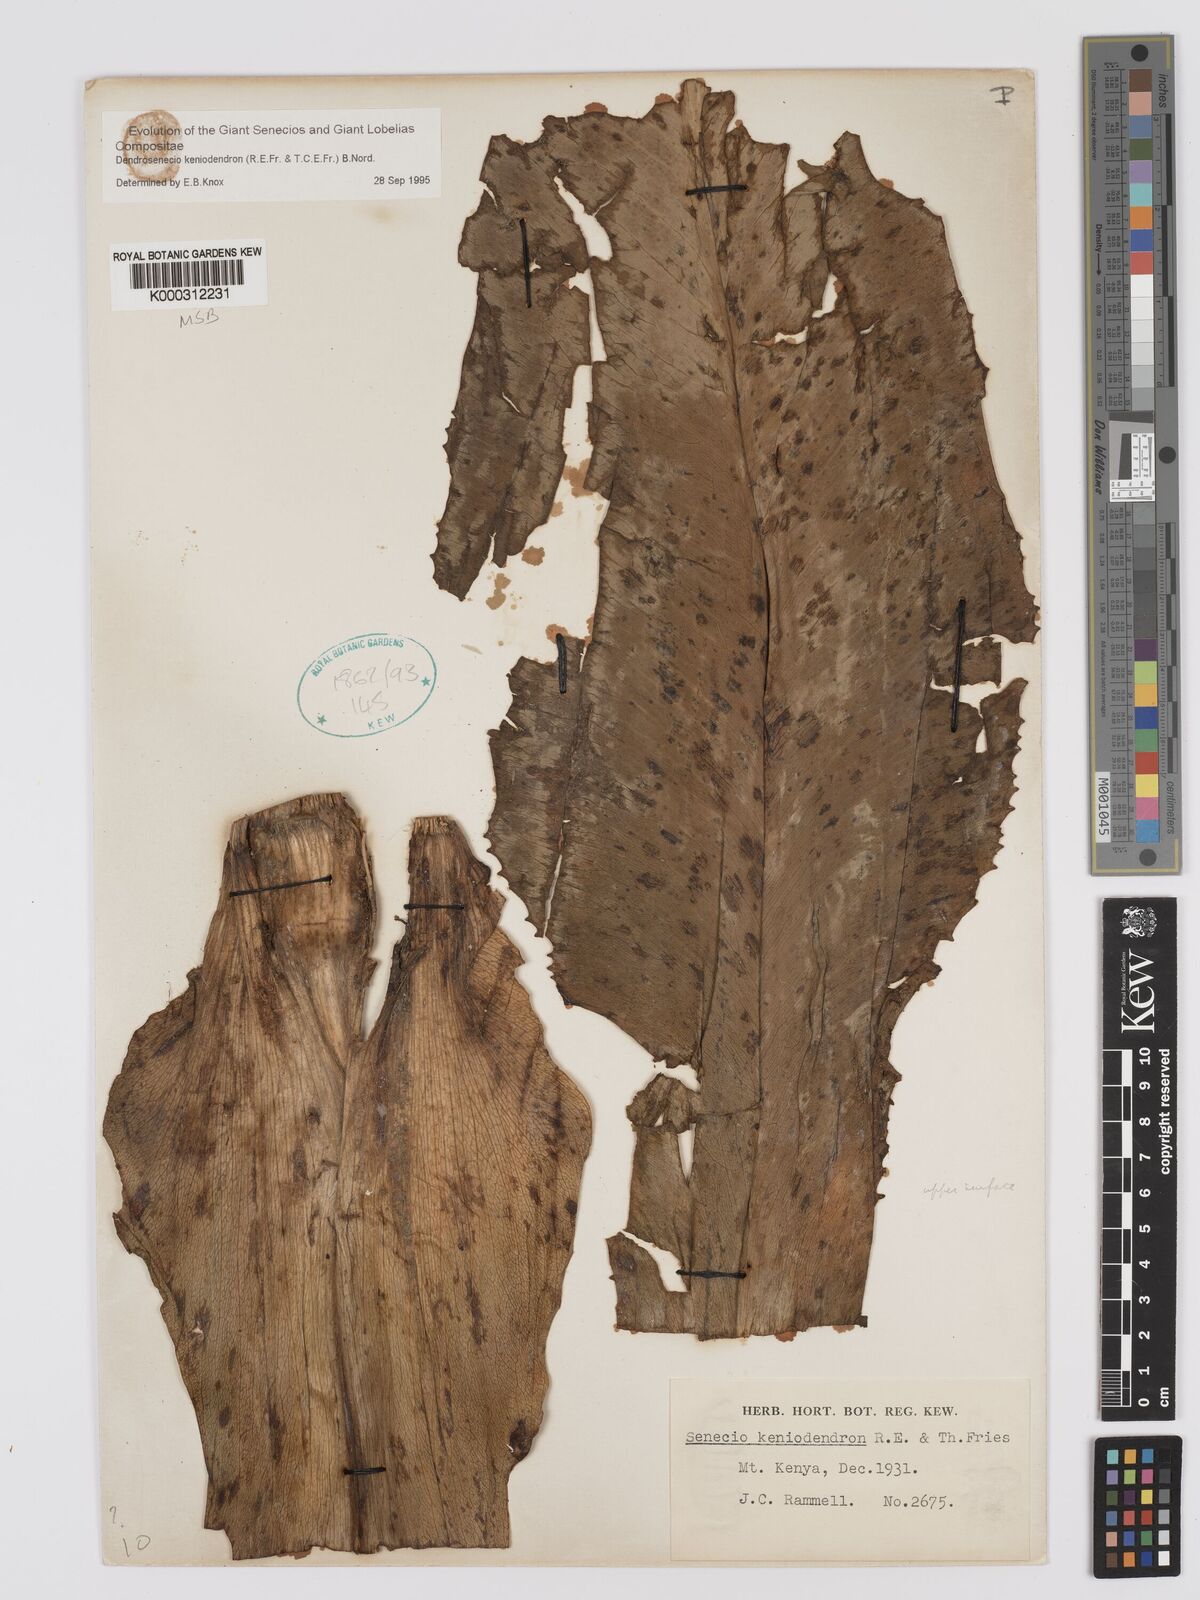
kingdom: Plantae
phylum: Tracheophyta
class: Magnoliopsida
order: Asterales
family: Asteraceae
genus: Dendrosenecio
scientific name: Dendrosenecio keniodendron
